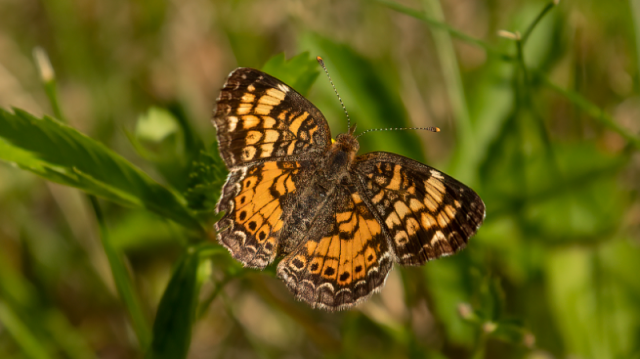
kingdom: Animalia
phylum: Arthropoda
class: Insecta
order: Lepidoptera
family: Nymphalidae
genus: Phyciodes
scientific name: Phyciodes tharos
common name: Pearl Crescent
